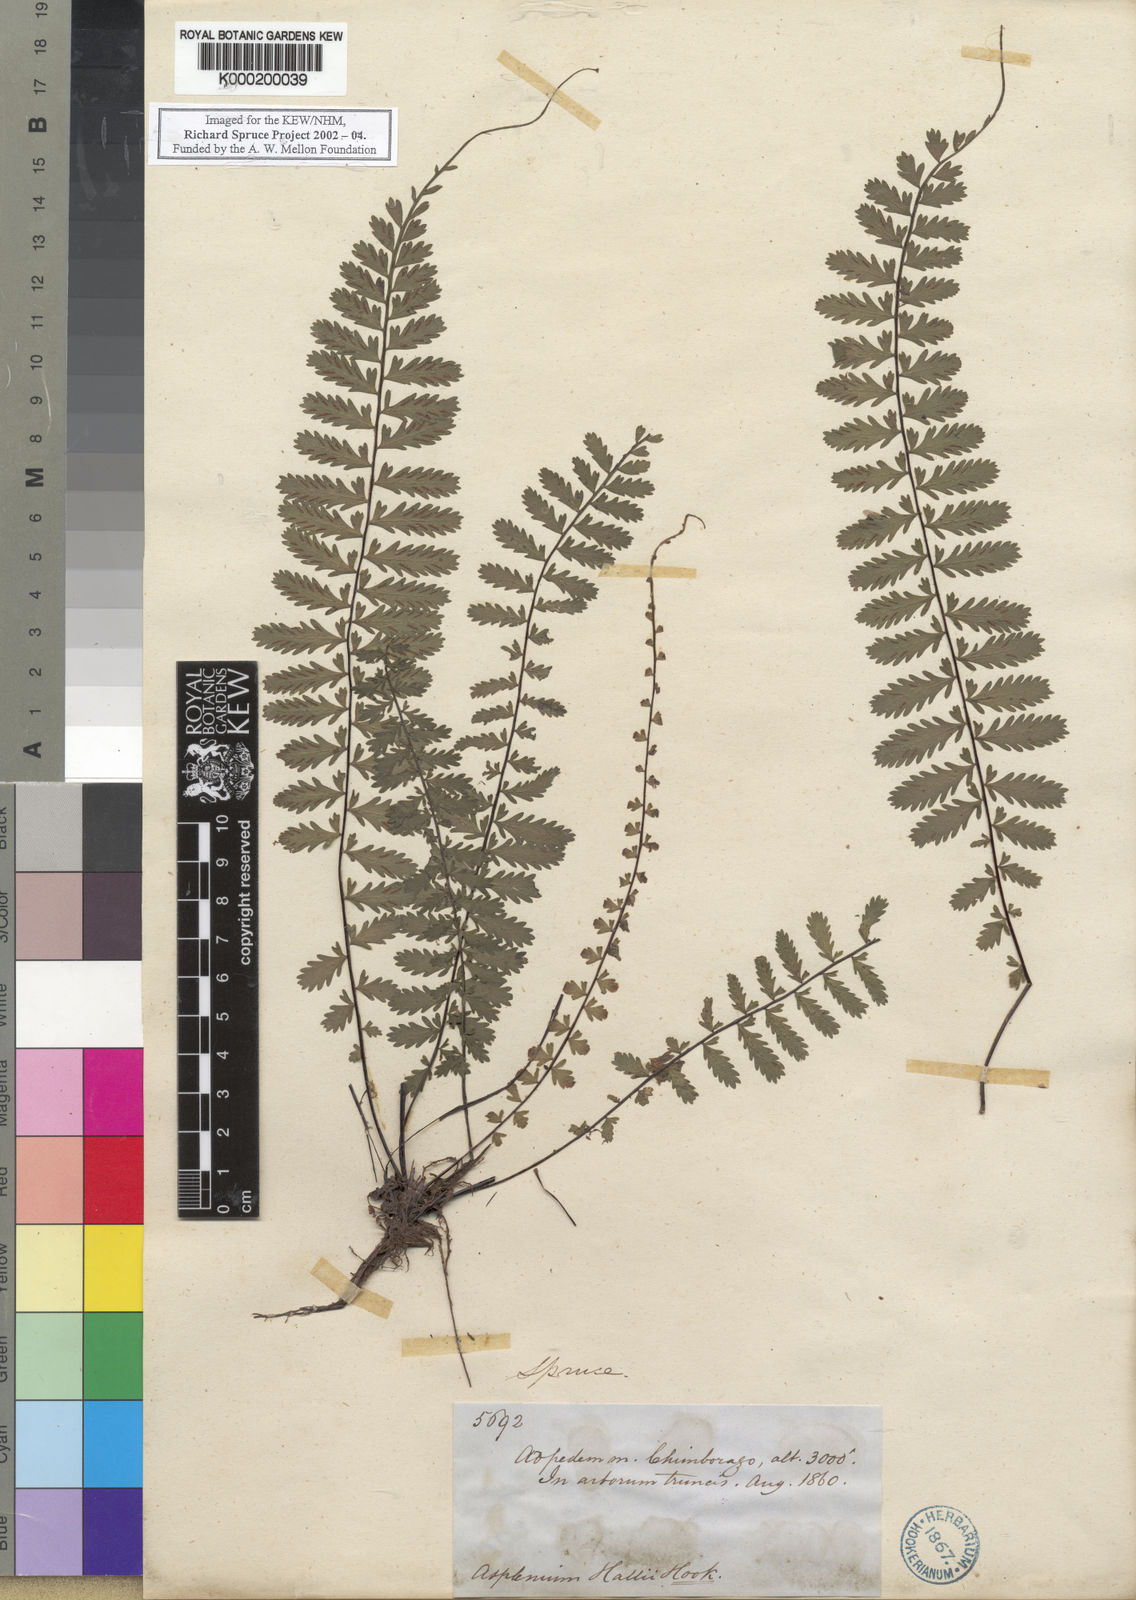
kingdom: Plantae
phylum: Tracheophyta
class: Polypodiopsida
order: Polypodiales
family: Aspleniaceae
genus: Asplenium
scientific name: Asplenium
